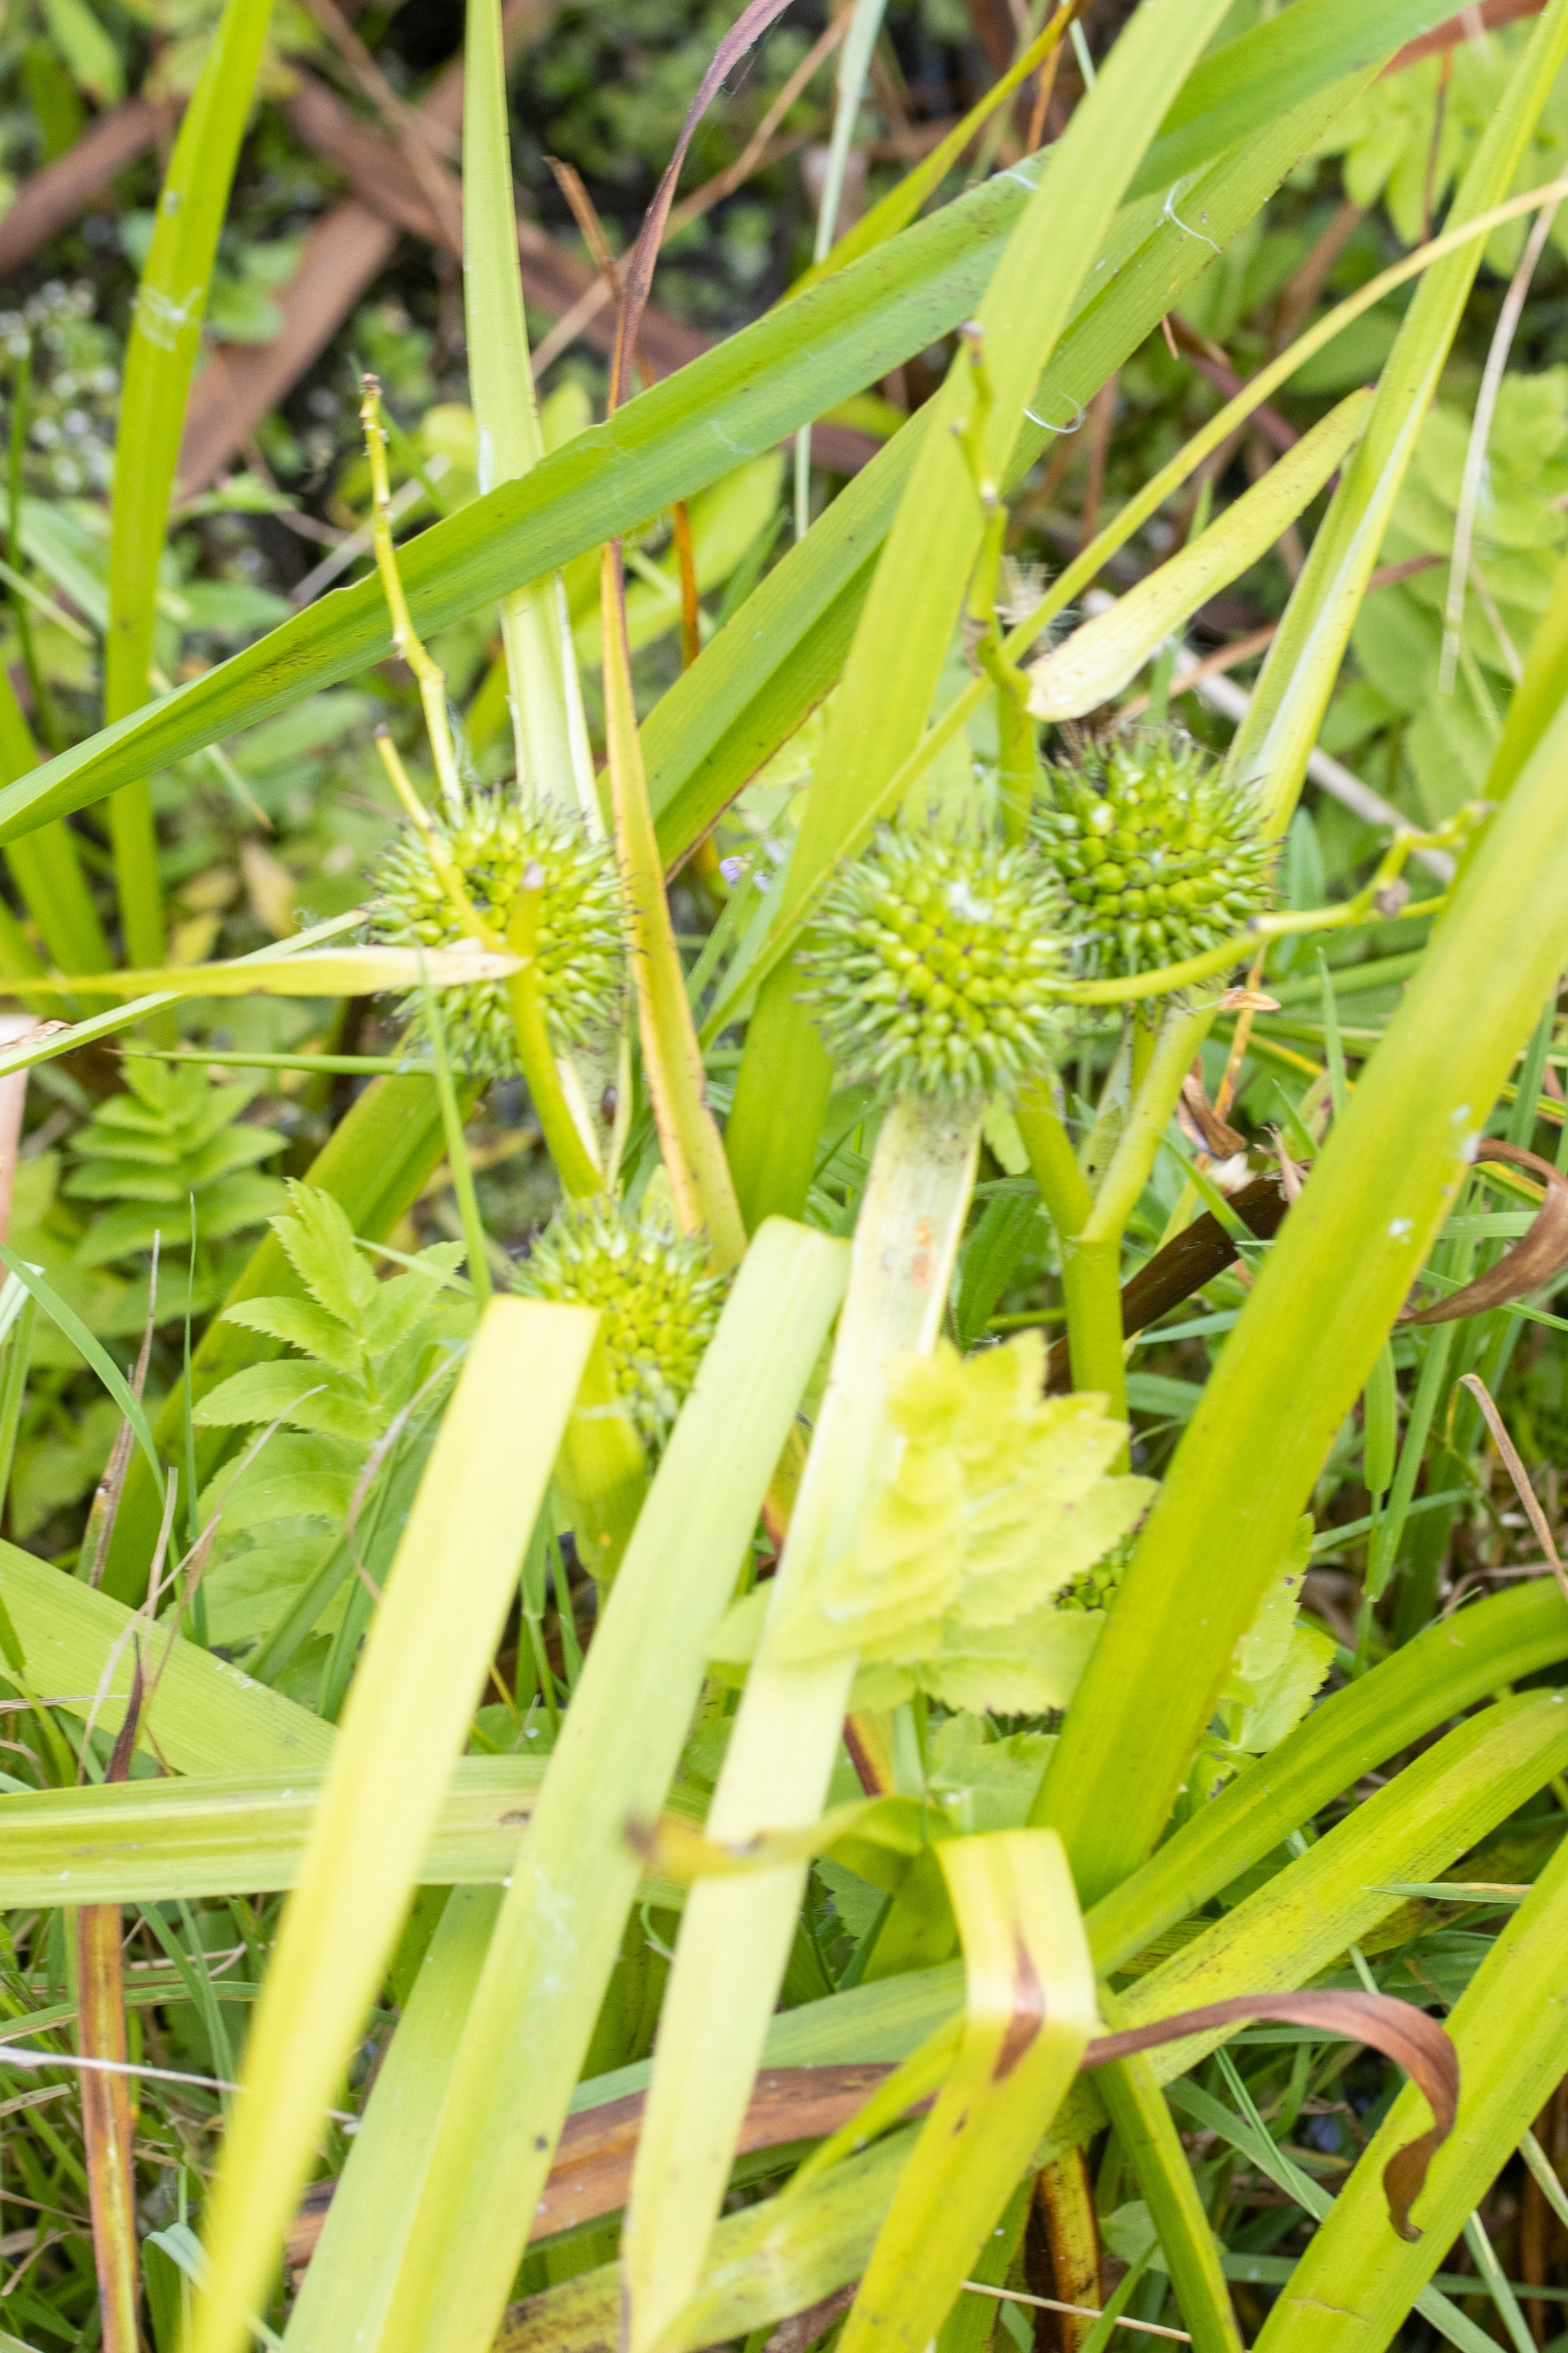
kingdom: Plantae
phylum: Tracheophyta
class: Liliopsida
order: Poales
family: Typhaceae
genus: Sparganium
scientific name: Sparganium erectum
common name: Grenet pindsvineknop
